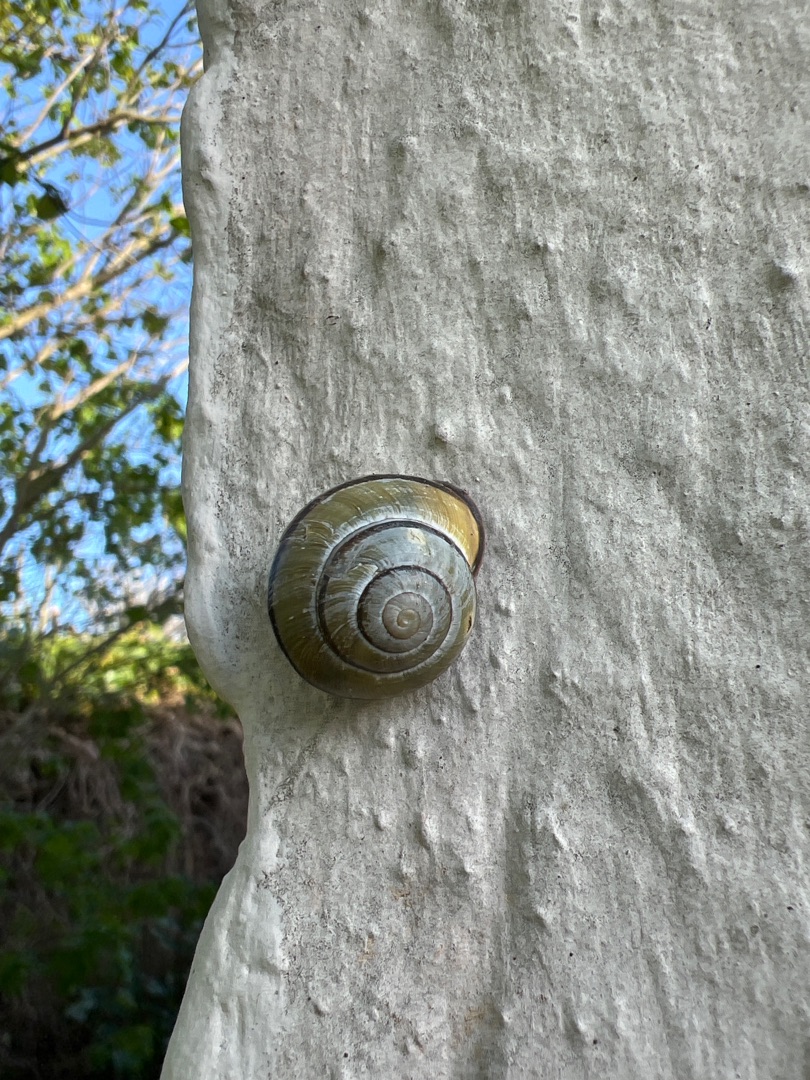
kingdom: Animalia
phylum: Mollusca
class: Gastropoda
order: Stylommatophora
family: Helicidae
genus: Cepaea
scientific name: Cepaea nemoralis
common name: Lundsnegl
